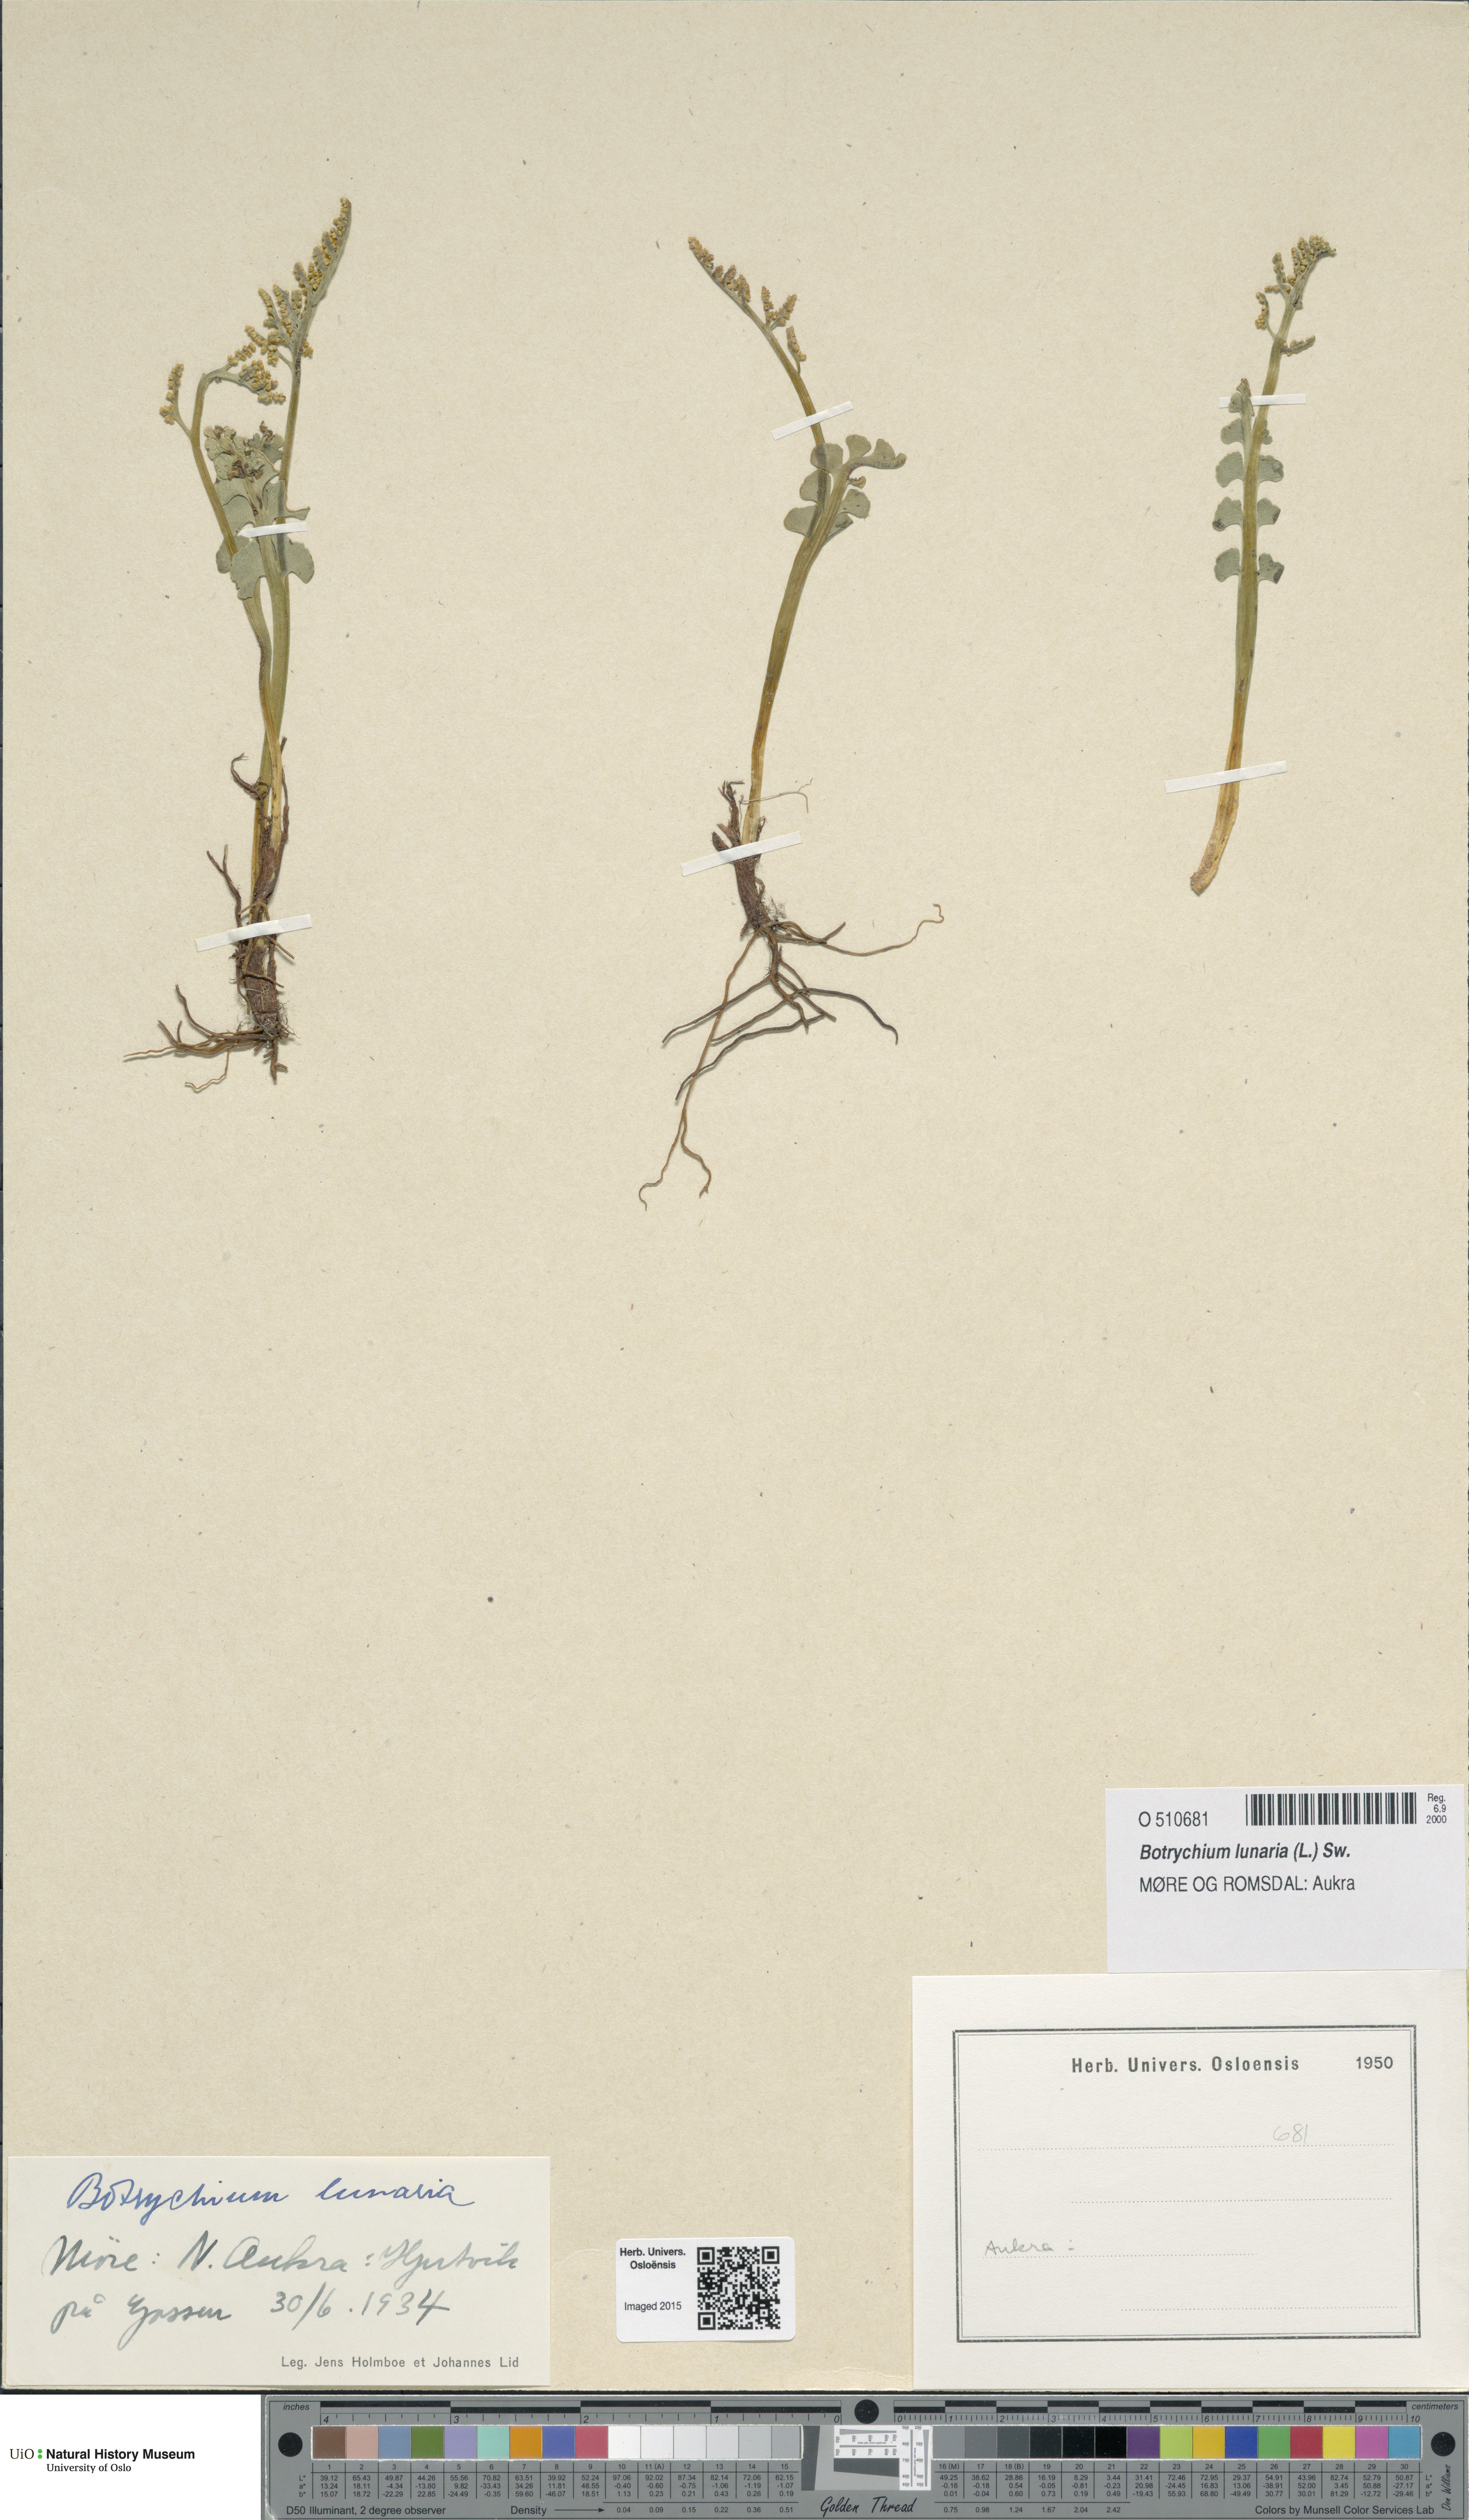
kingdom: Plantae
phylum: Tracheophyta
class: Polypodiopsida
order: Ophioglossales
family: Ophioglossaceae
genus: Botrychium
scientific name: Botrychium lunaria
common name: Moonwort
